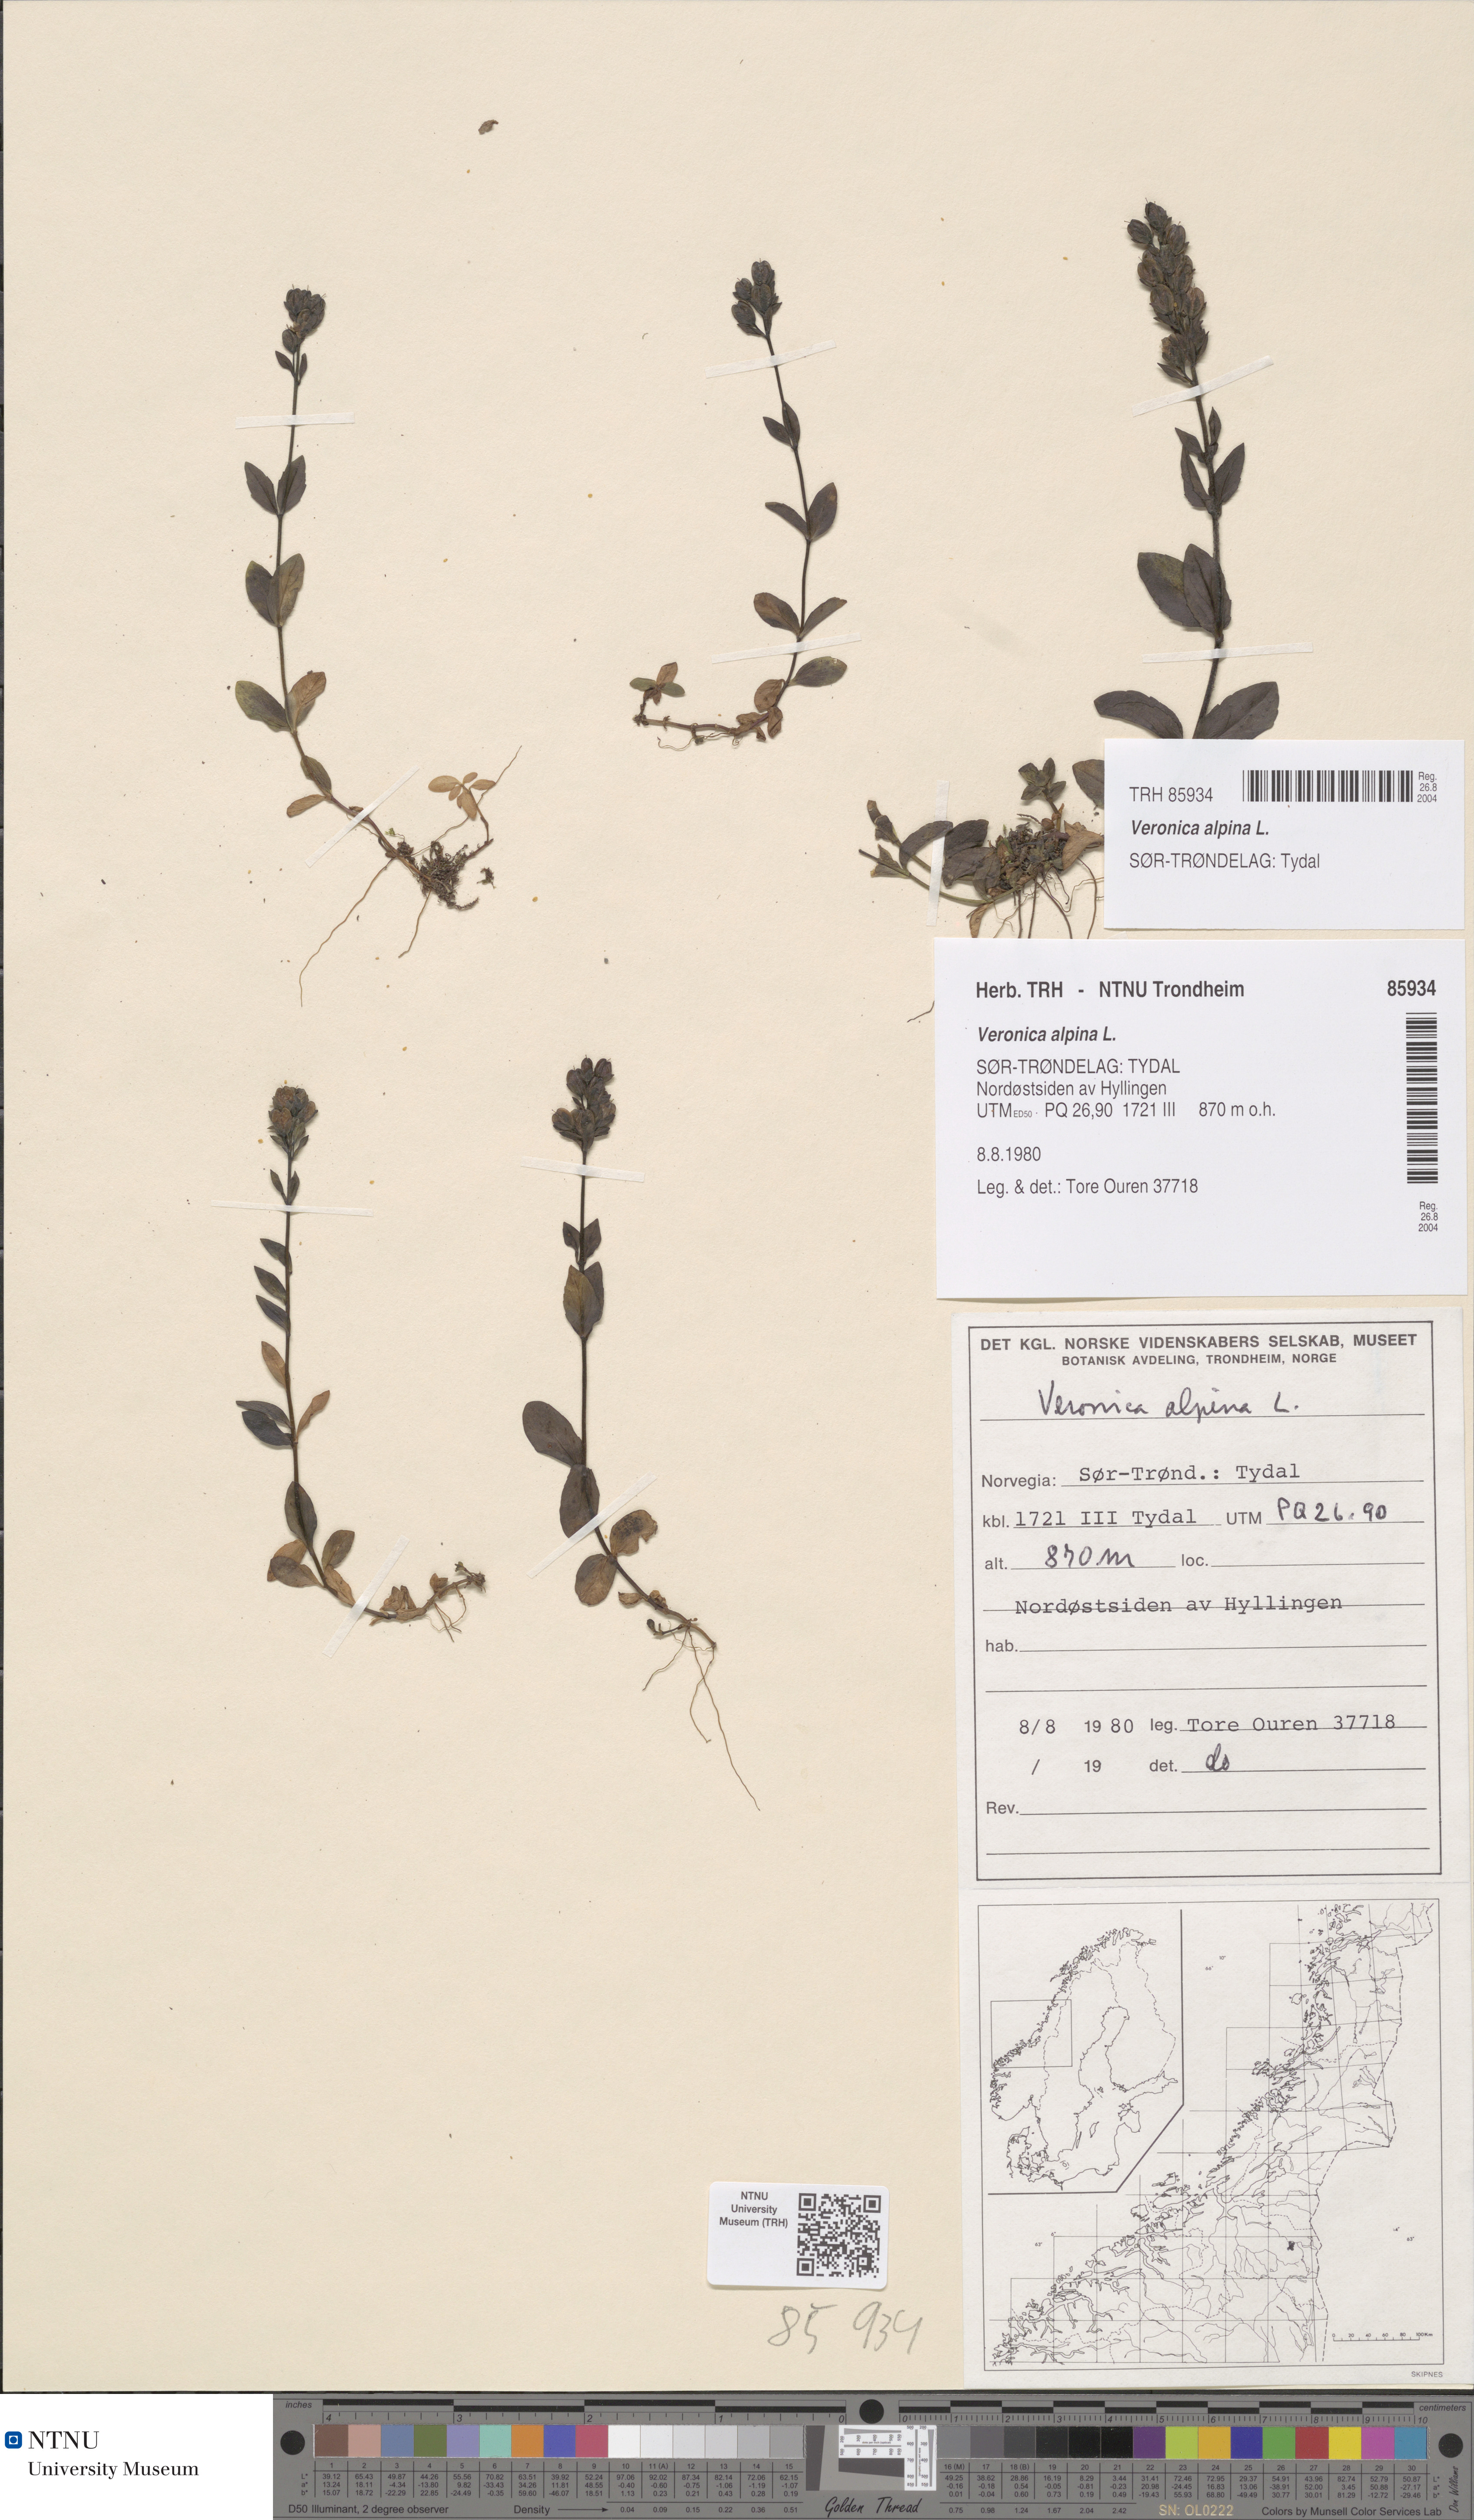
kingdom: Plantae
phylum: Tracheophyta
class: Magnoliopsida
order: Lamiales
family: Plantaginaceae
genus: Veronica
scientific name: Veronica alpina
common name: Alpine speedwell
